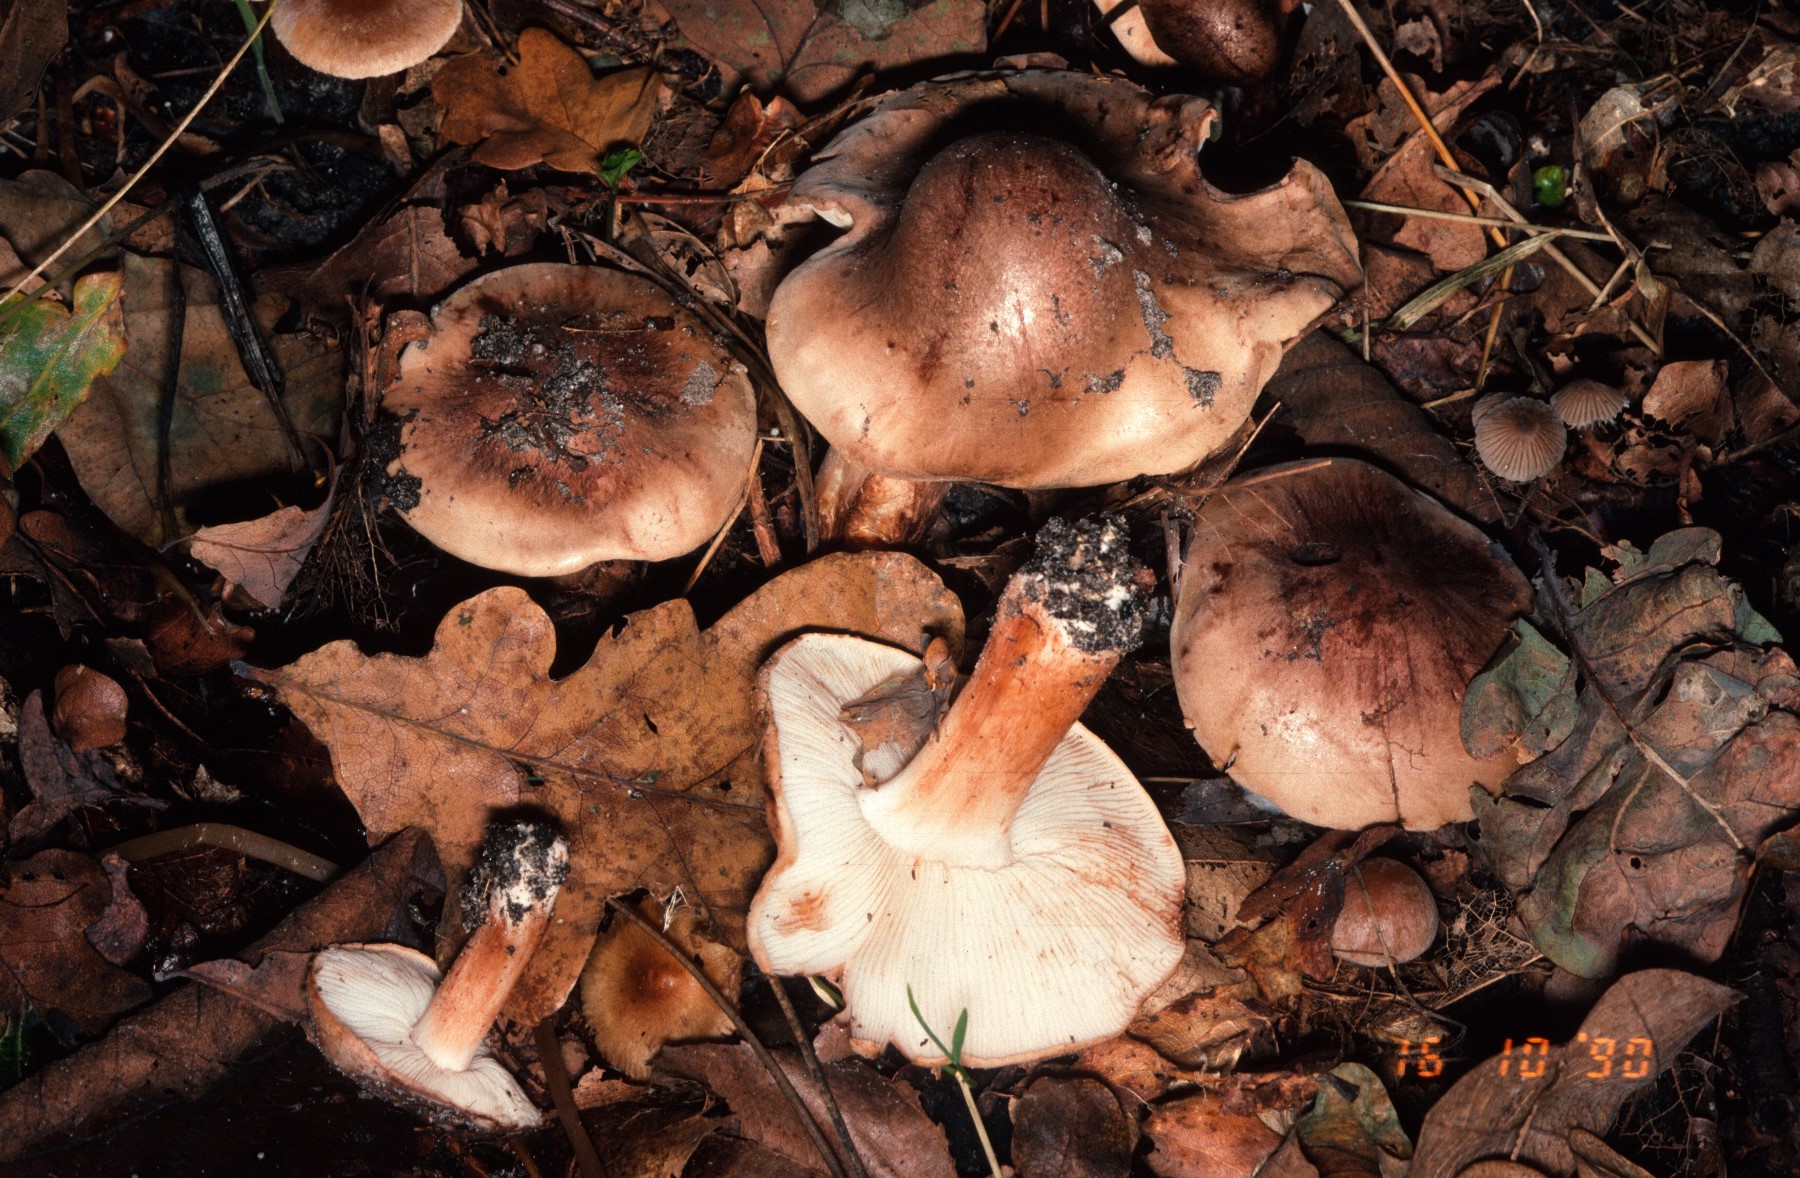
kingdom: Fungi
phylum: Basidiomycota
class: Agaricomycetes
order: Agaricales
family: Tricholomataceae
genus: Tricholoma
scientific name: Tricholoma populinum
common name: poppel-ridderhat
